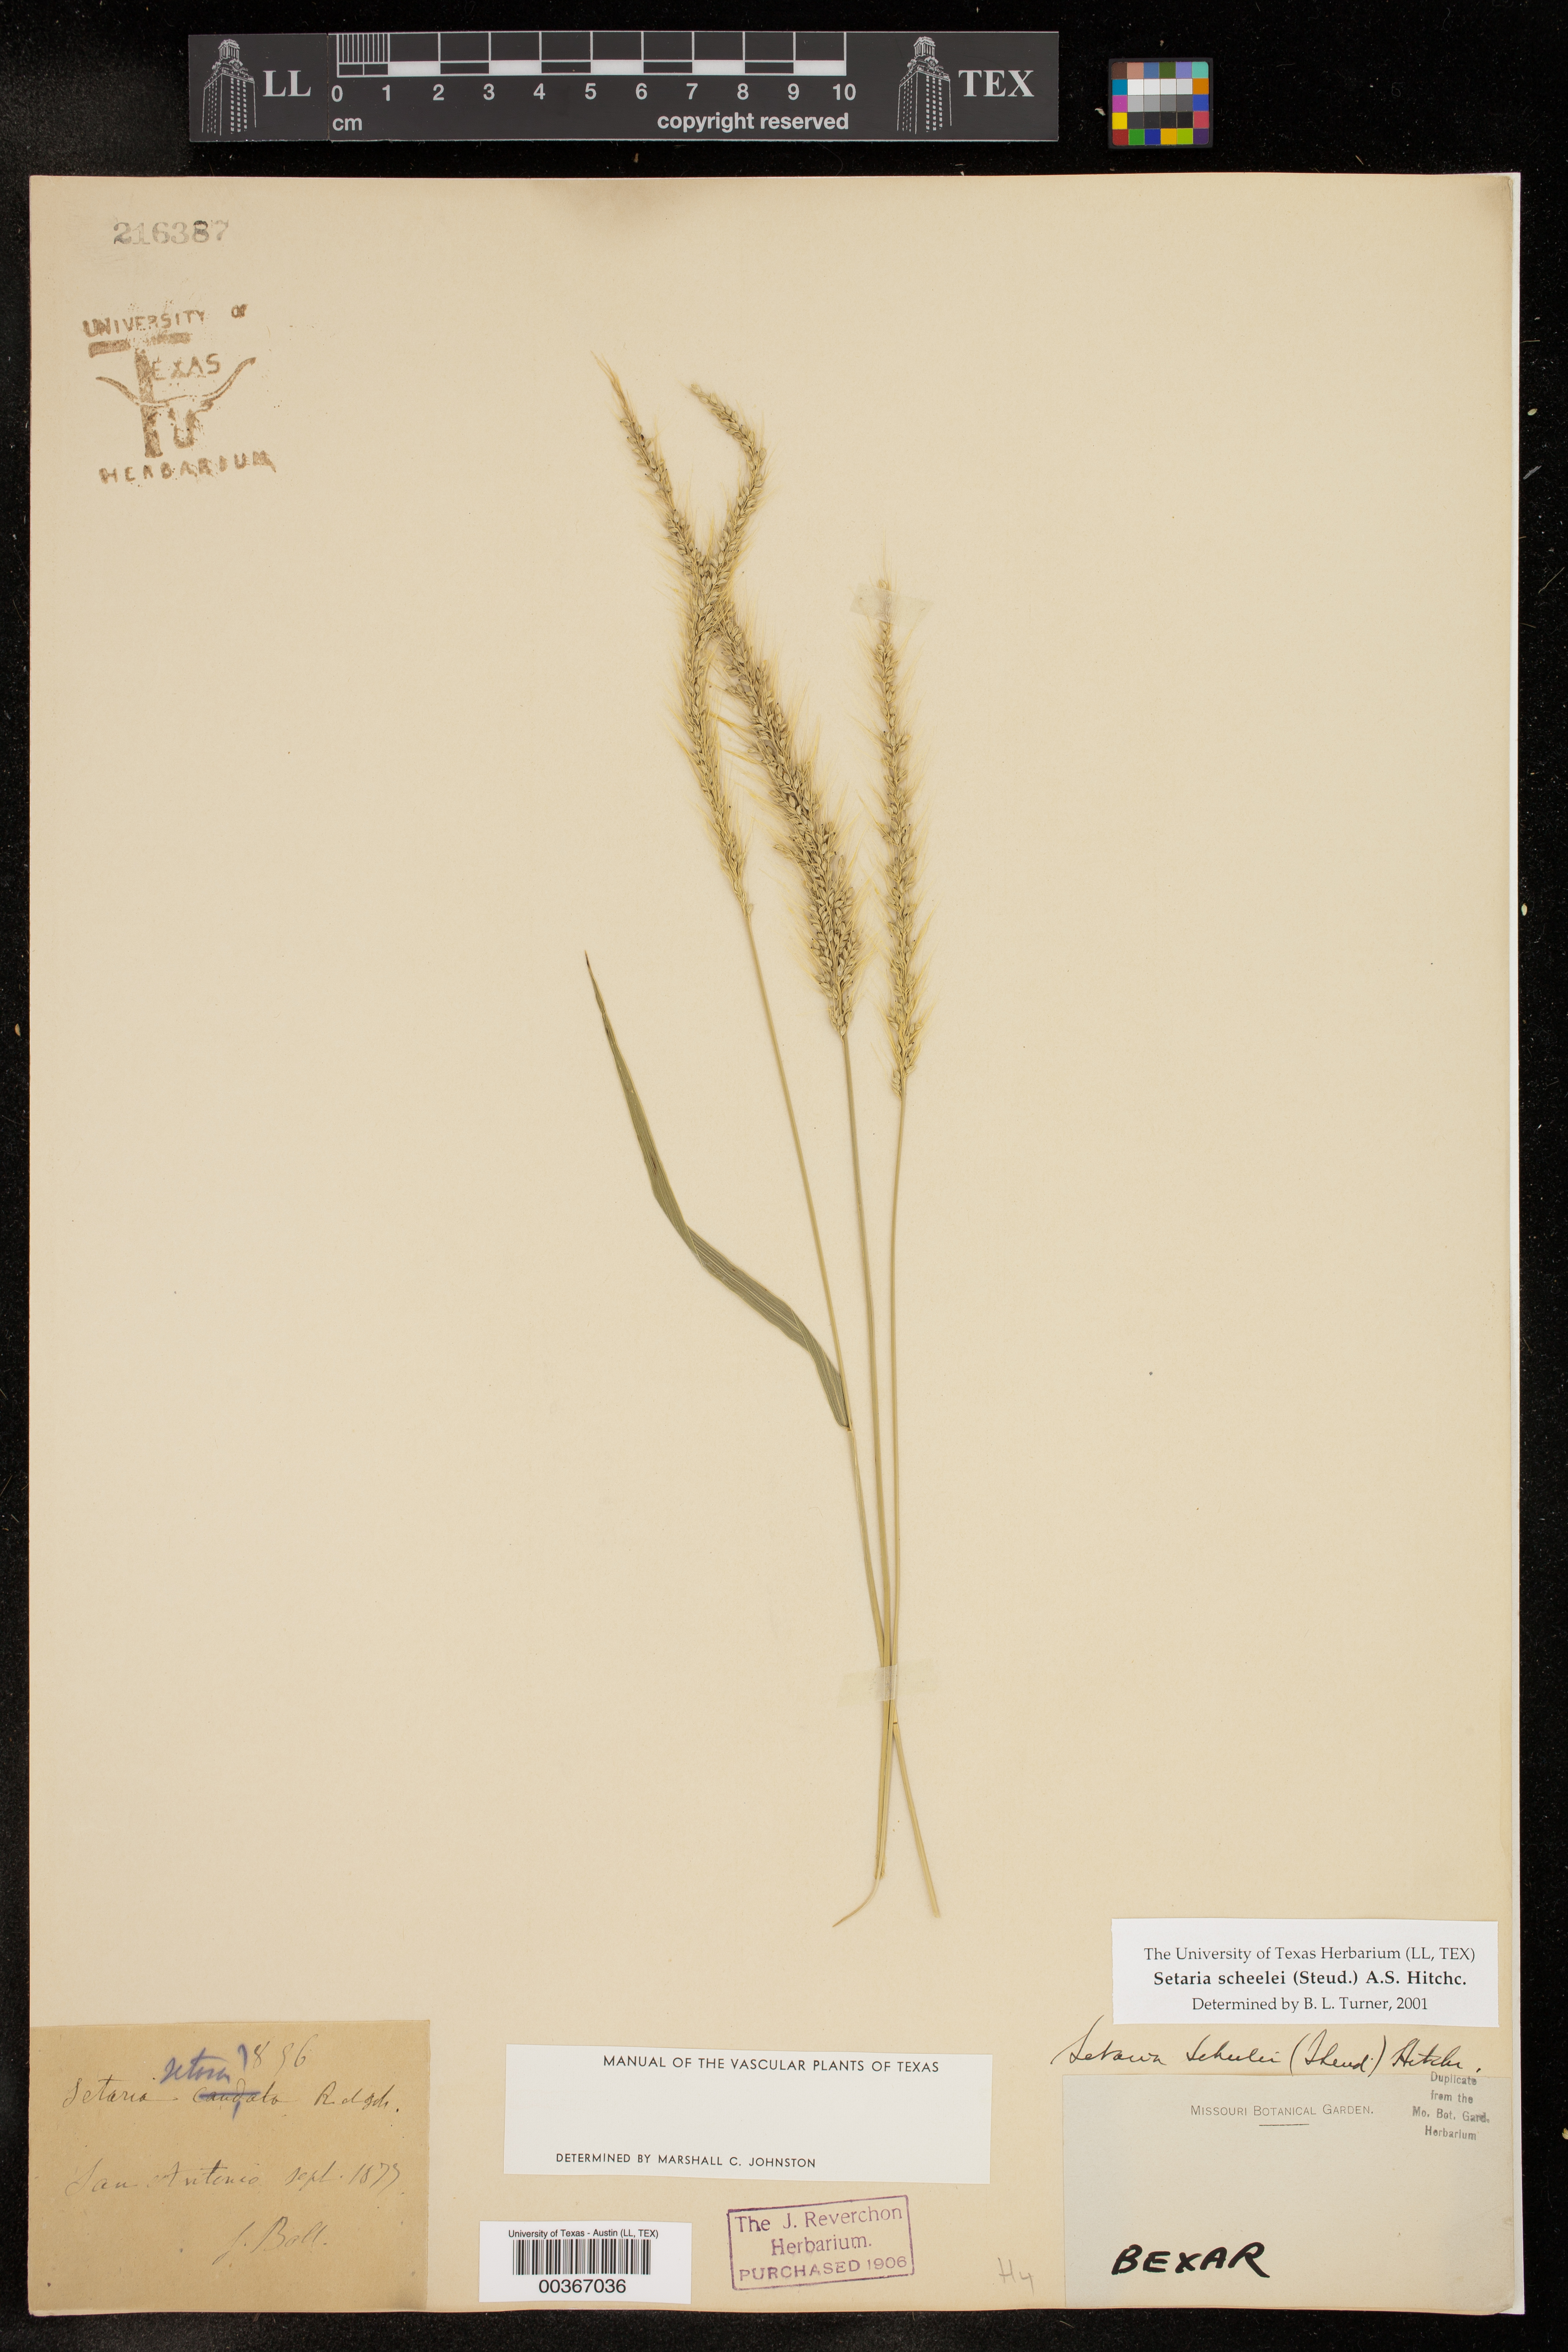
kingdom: Plantae
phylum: Tracheophyta
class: Liliopsida
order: Poales
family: Poaceae
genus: Setaria
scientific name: Setaria scheelei
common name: Southwestern bristle grass
